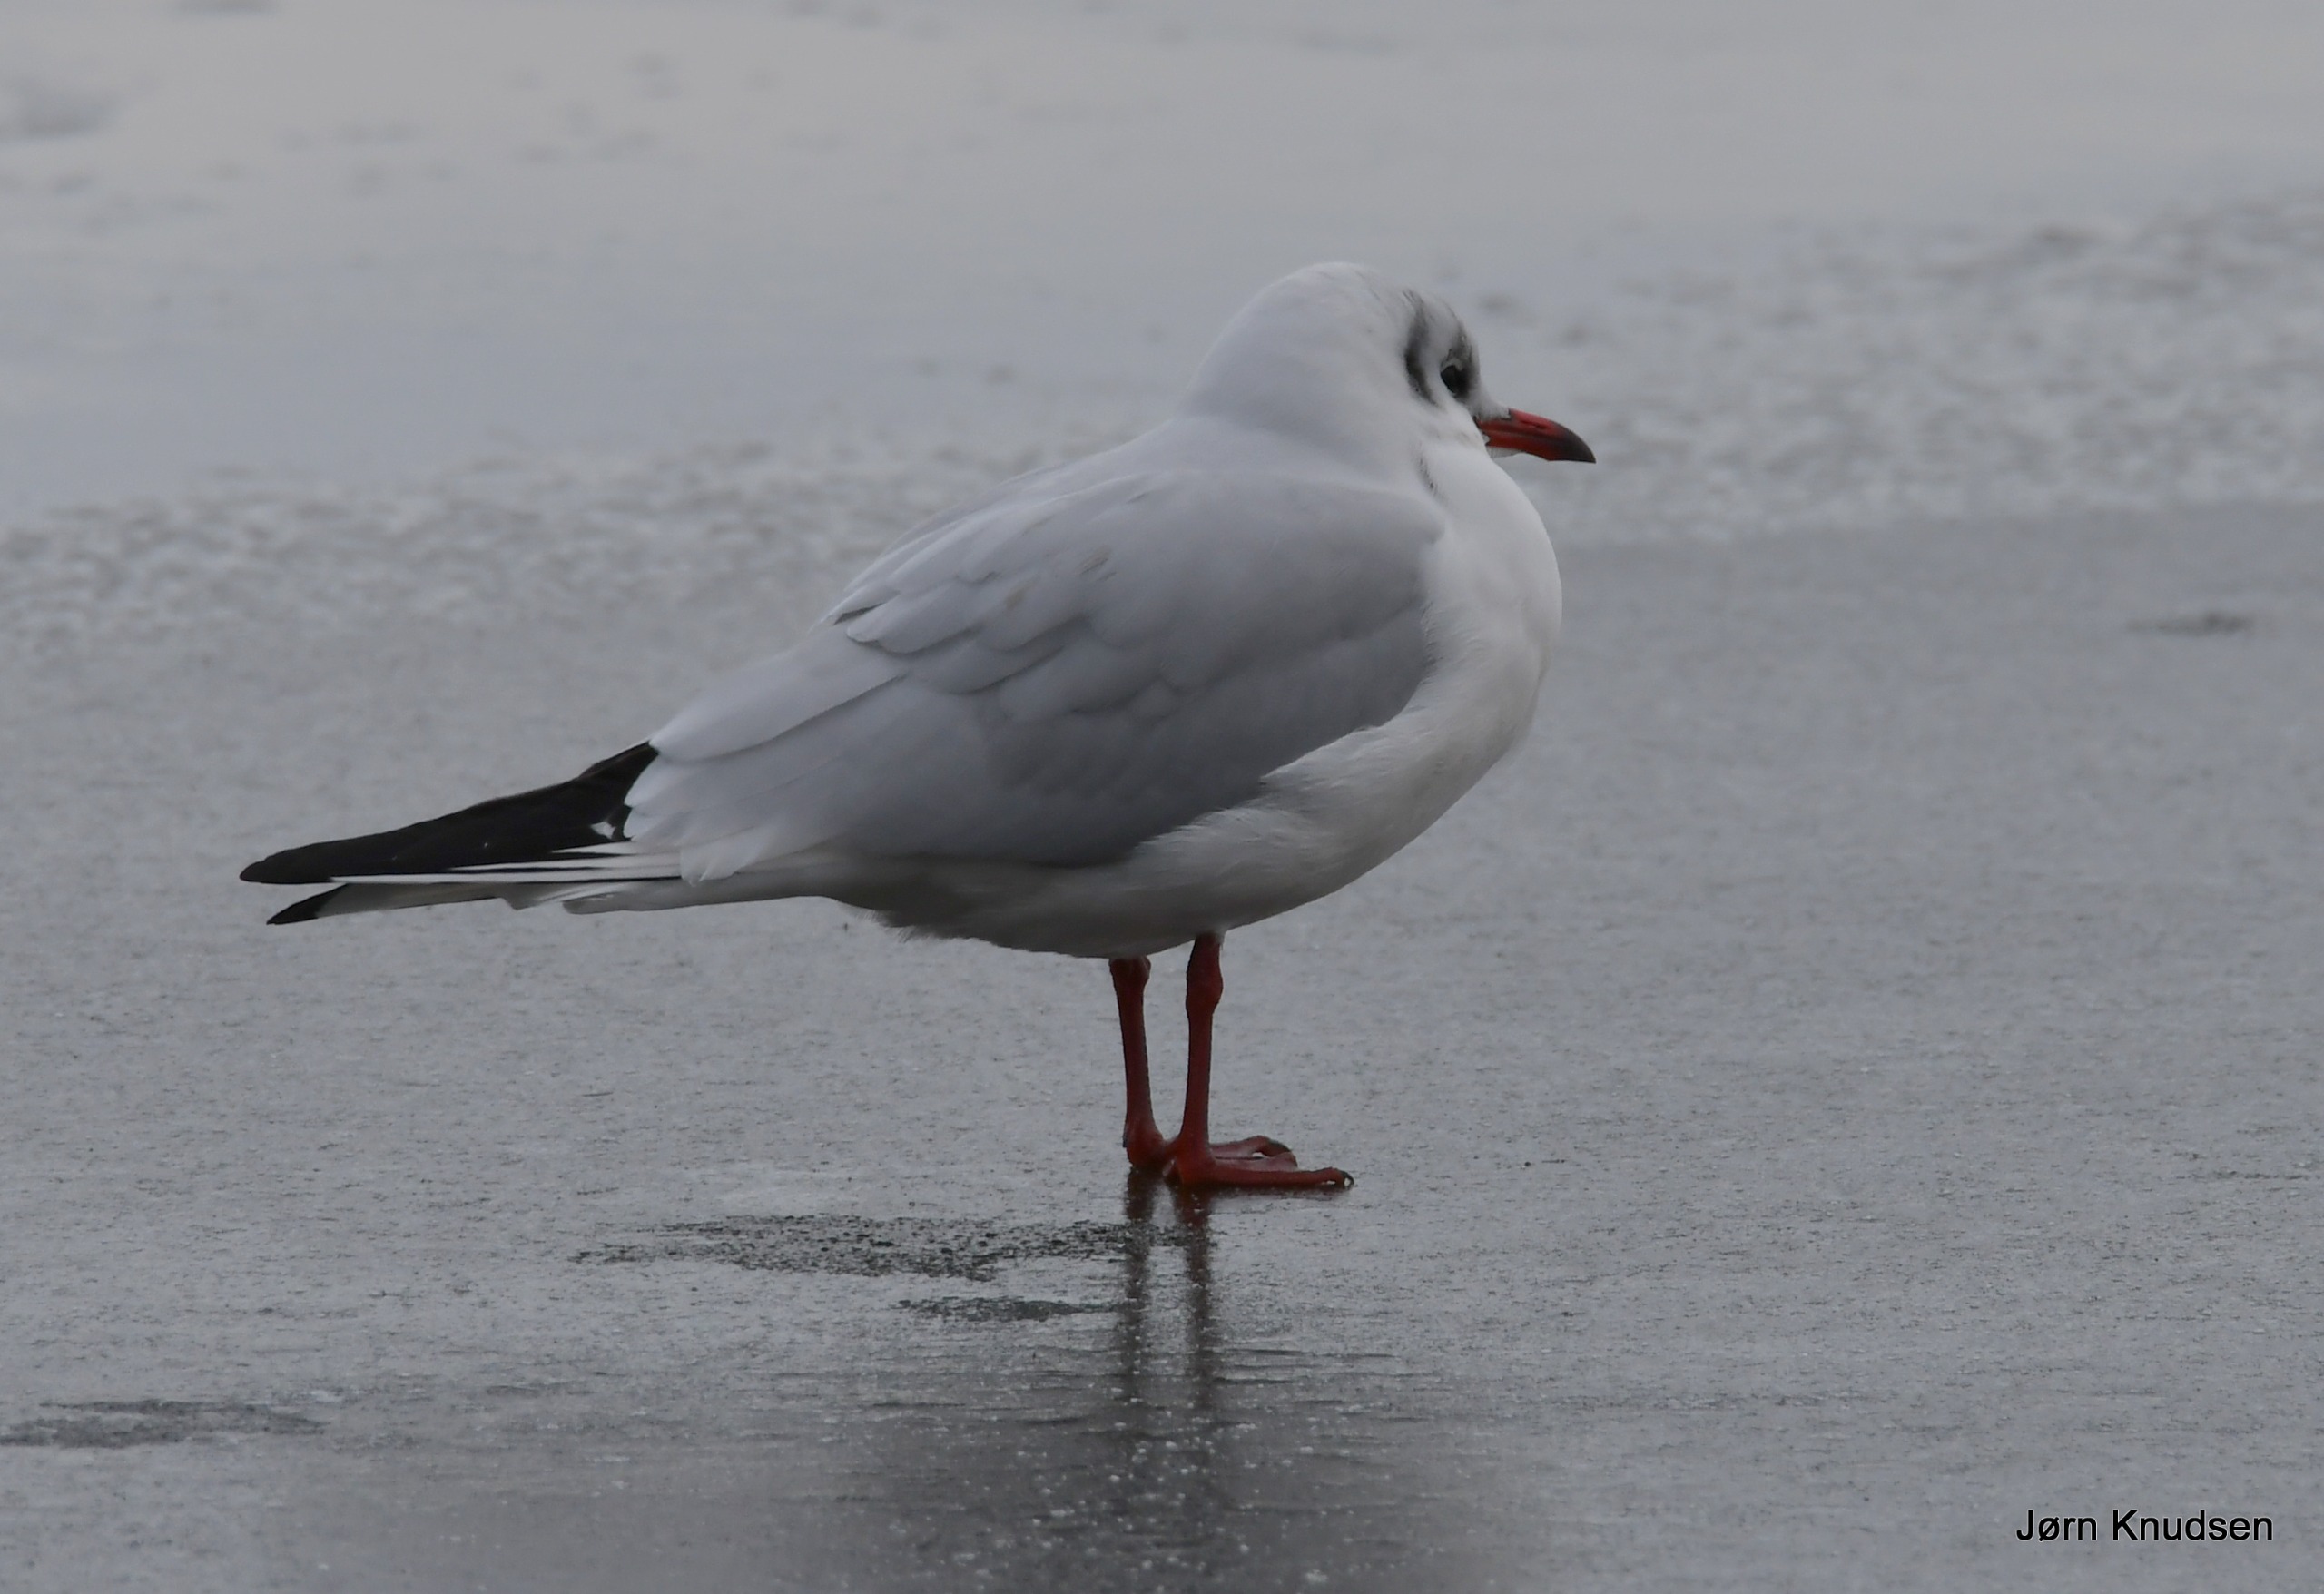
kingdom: Animalia
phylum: Chordata
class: Aves
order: Charadriiformes
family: Laridae
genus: Chroicocephalus
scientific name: Chroicocephalus ridibundus
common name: Hættemåge
